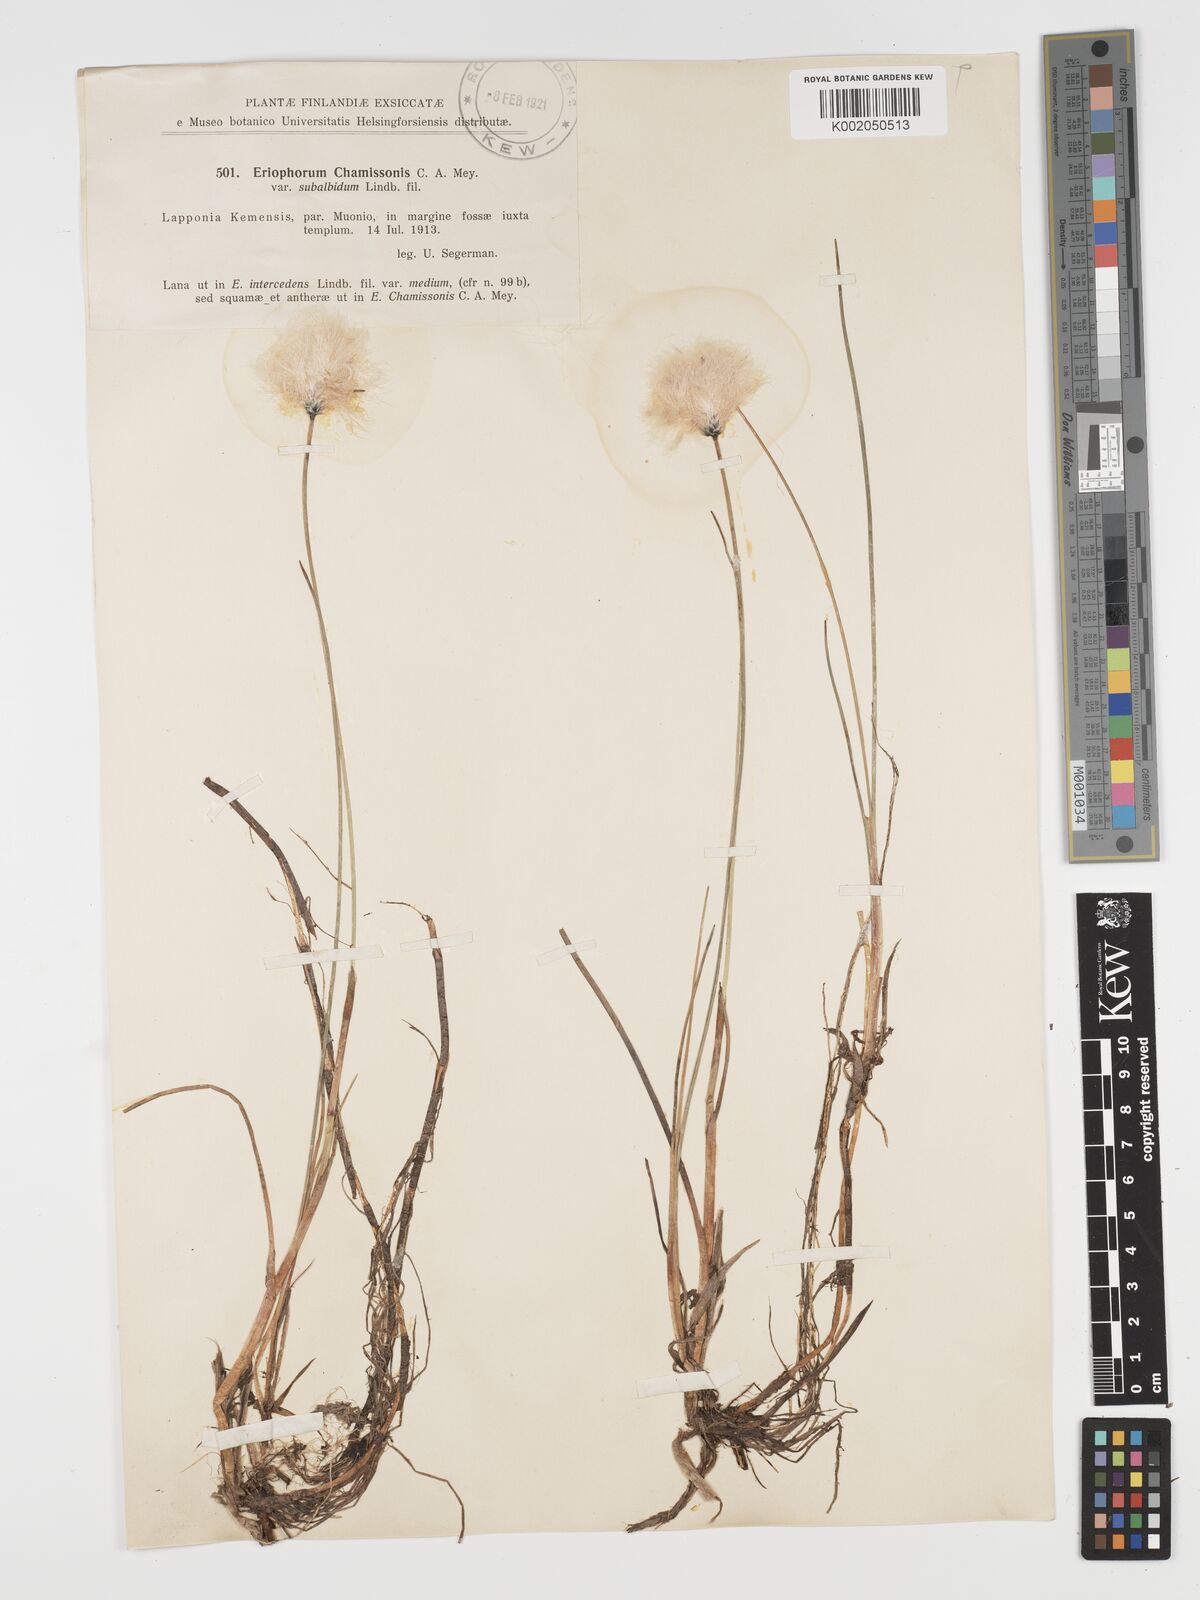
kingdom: Plantae
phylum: Tracheophyta
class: Liliopsida
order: Poales
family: Cyperaceae
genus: Eriophorum
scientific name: Eriophorum chamissonis
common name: Chamisso's cottongrass
